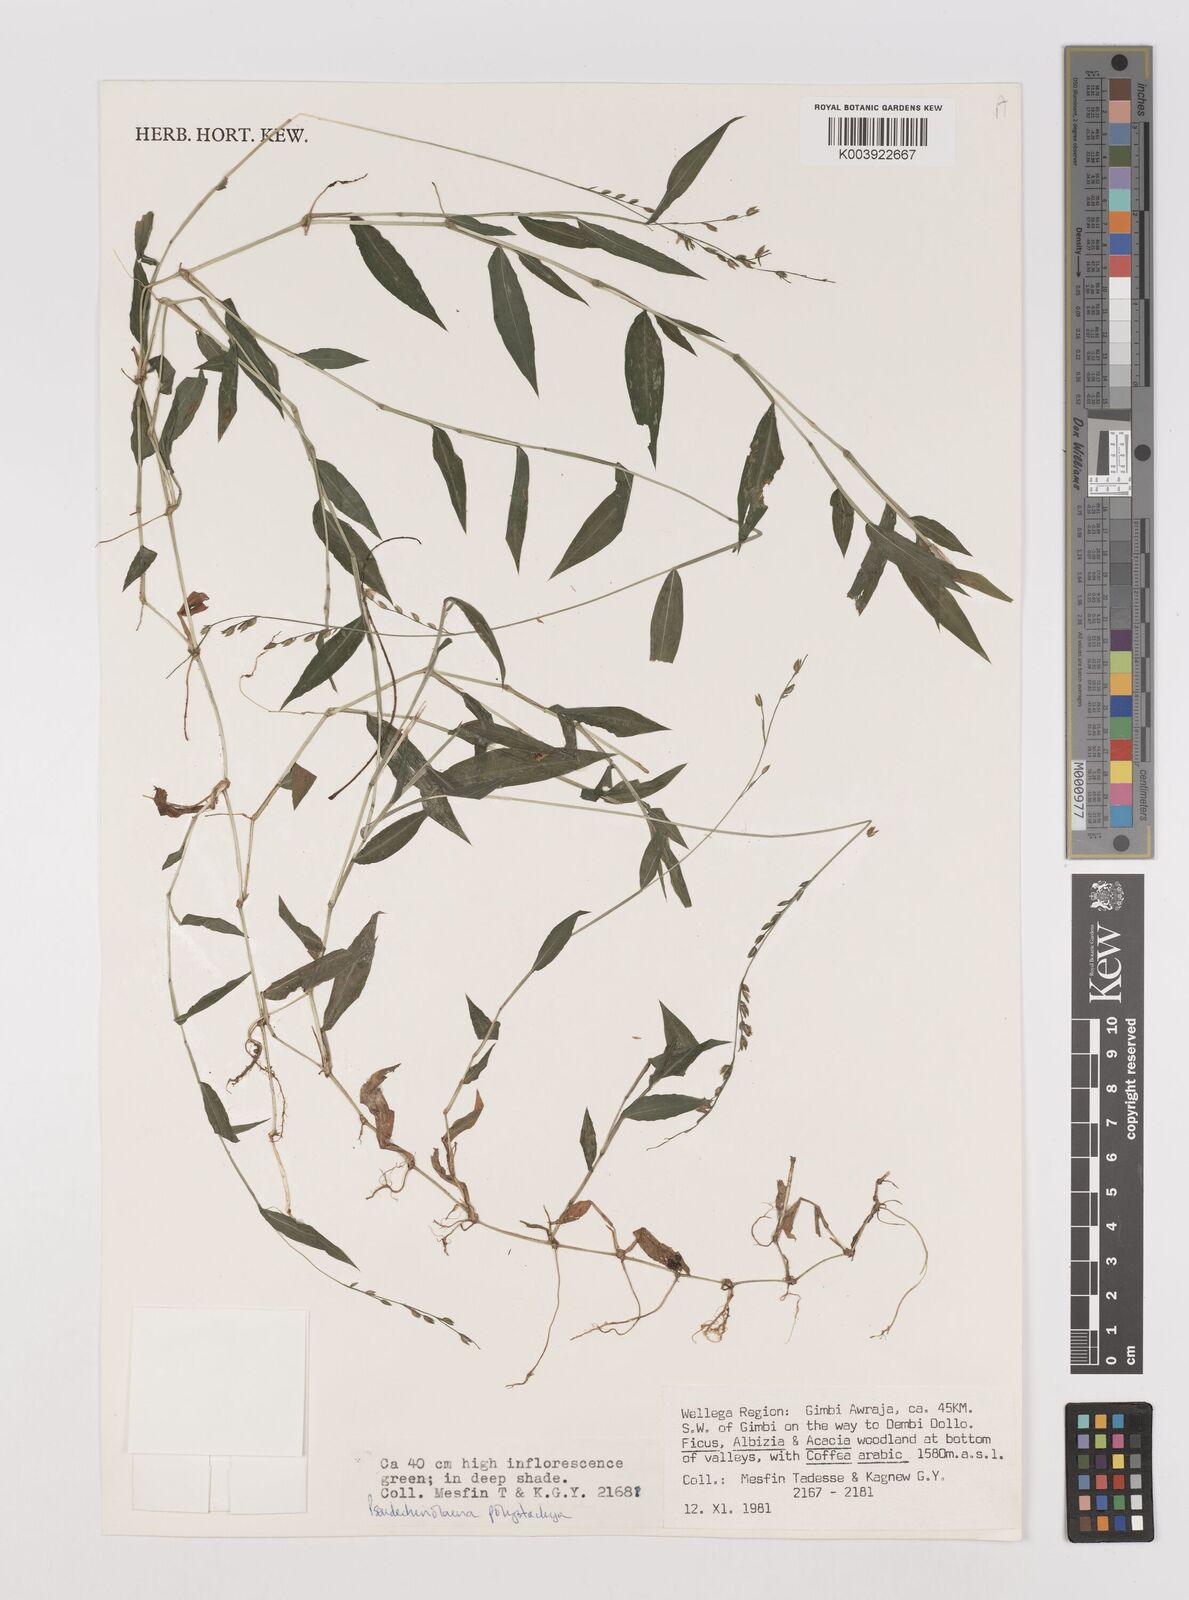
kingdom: Plantae
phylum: Tracheophyta
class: Liliopsida
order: Poales
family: Poaceae
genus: Pseudechinolaena
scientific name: Pseudechinolaena polystachya
